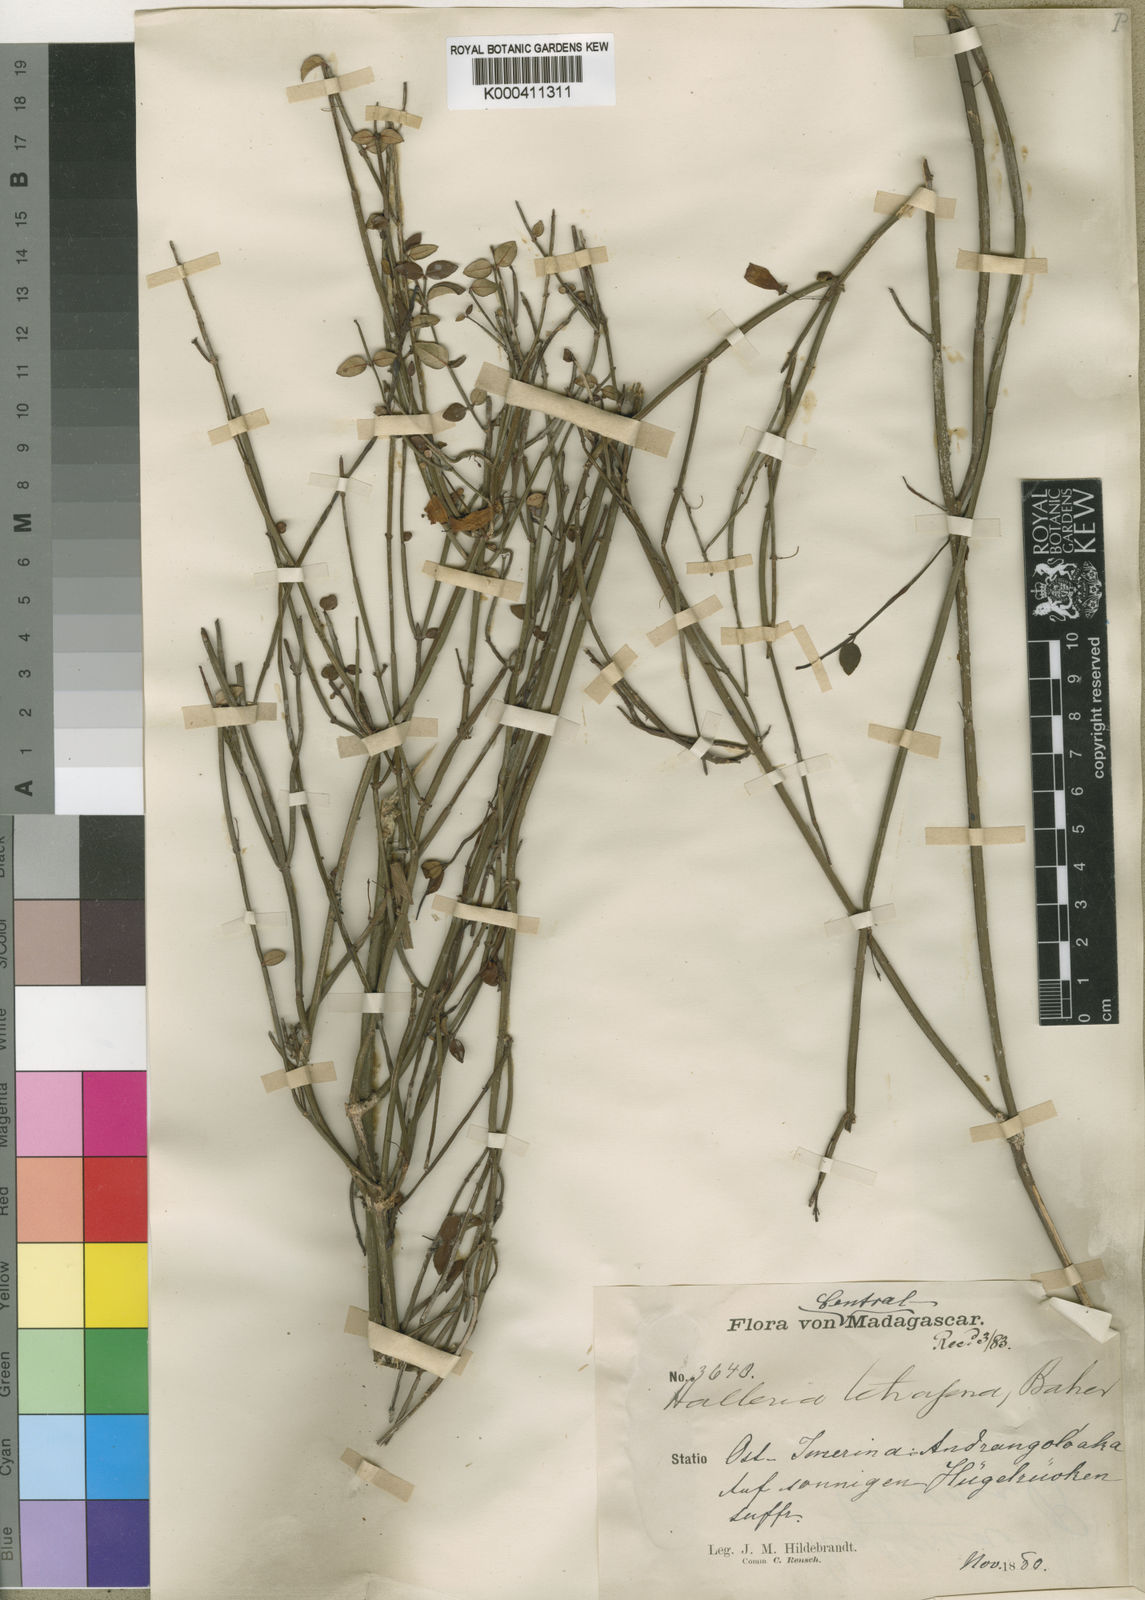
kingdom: Plantae
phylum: Tracheophyta
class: Magnoliopsida
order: Lamiales
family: Stilbaceae
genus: Halleria
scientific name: Halleria ligustrifolia
